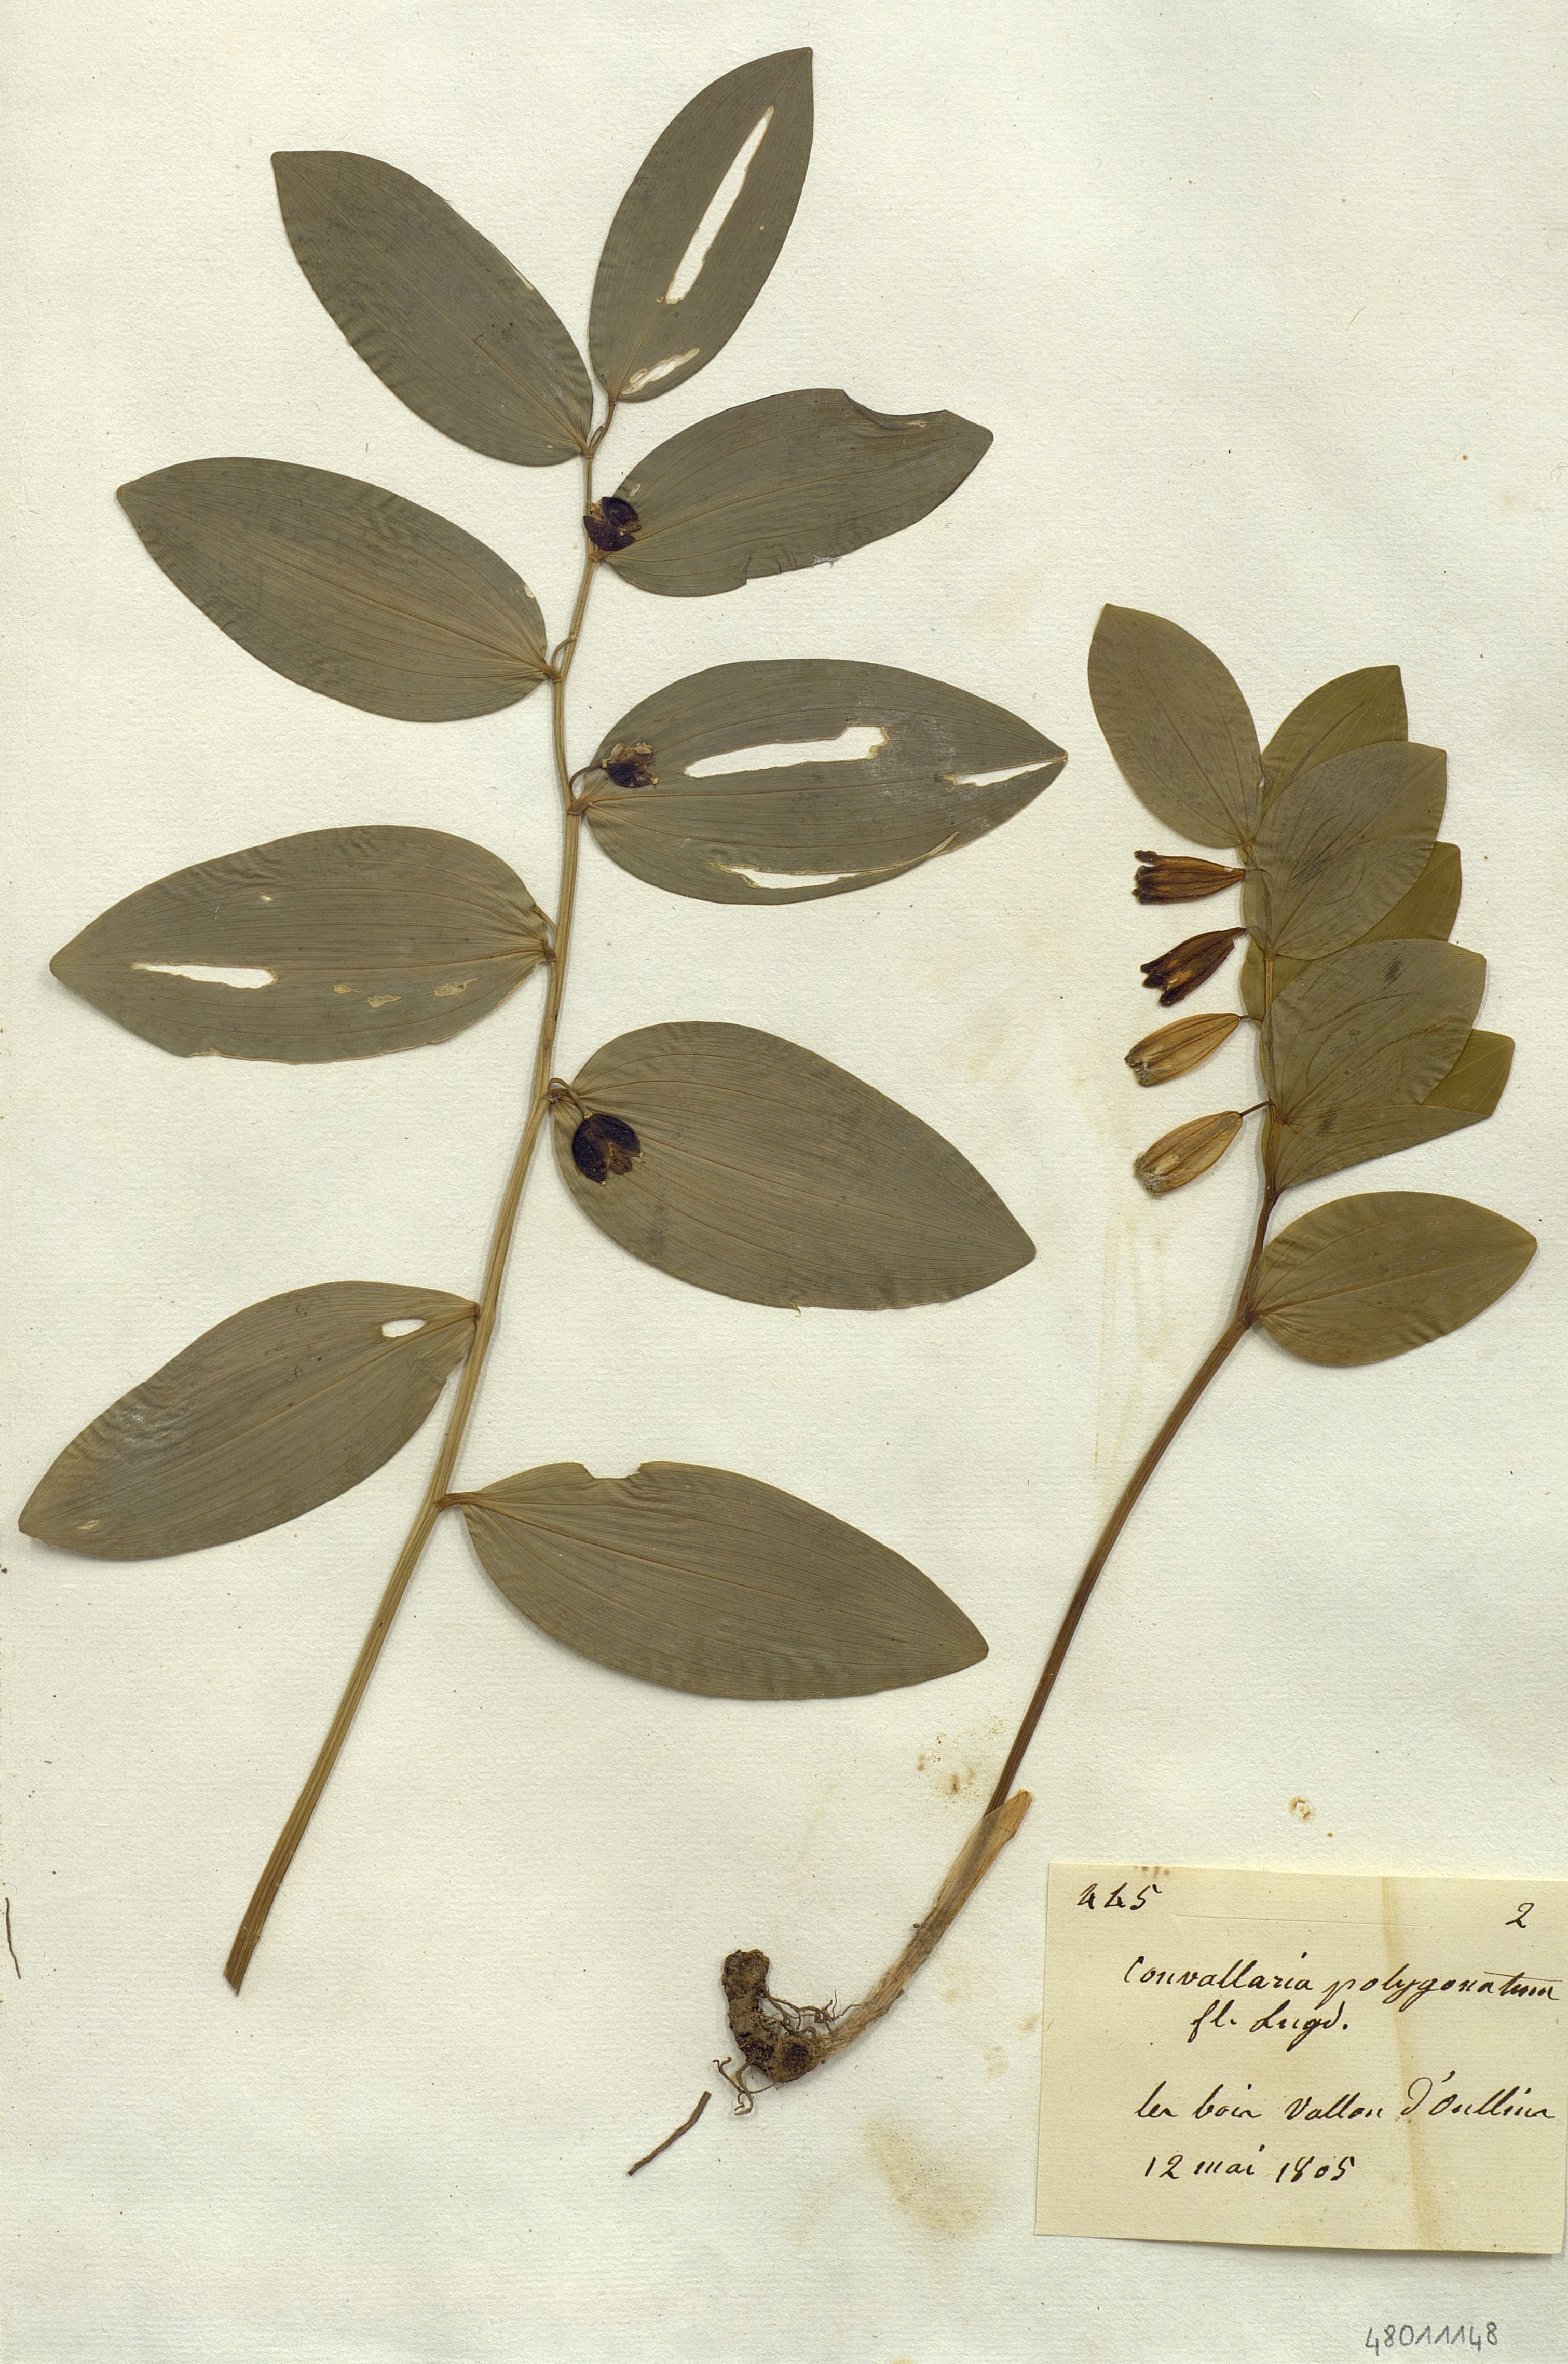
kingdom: Plantae
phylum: Tracheophyta
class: Liliopsida
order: Liliales
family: Liliaceae
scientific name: Liliaceae
